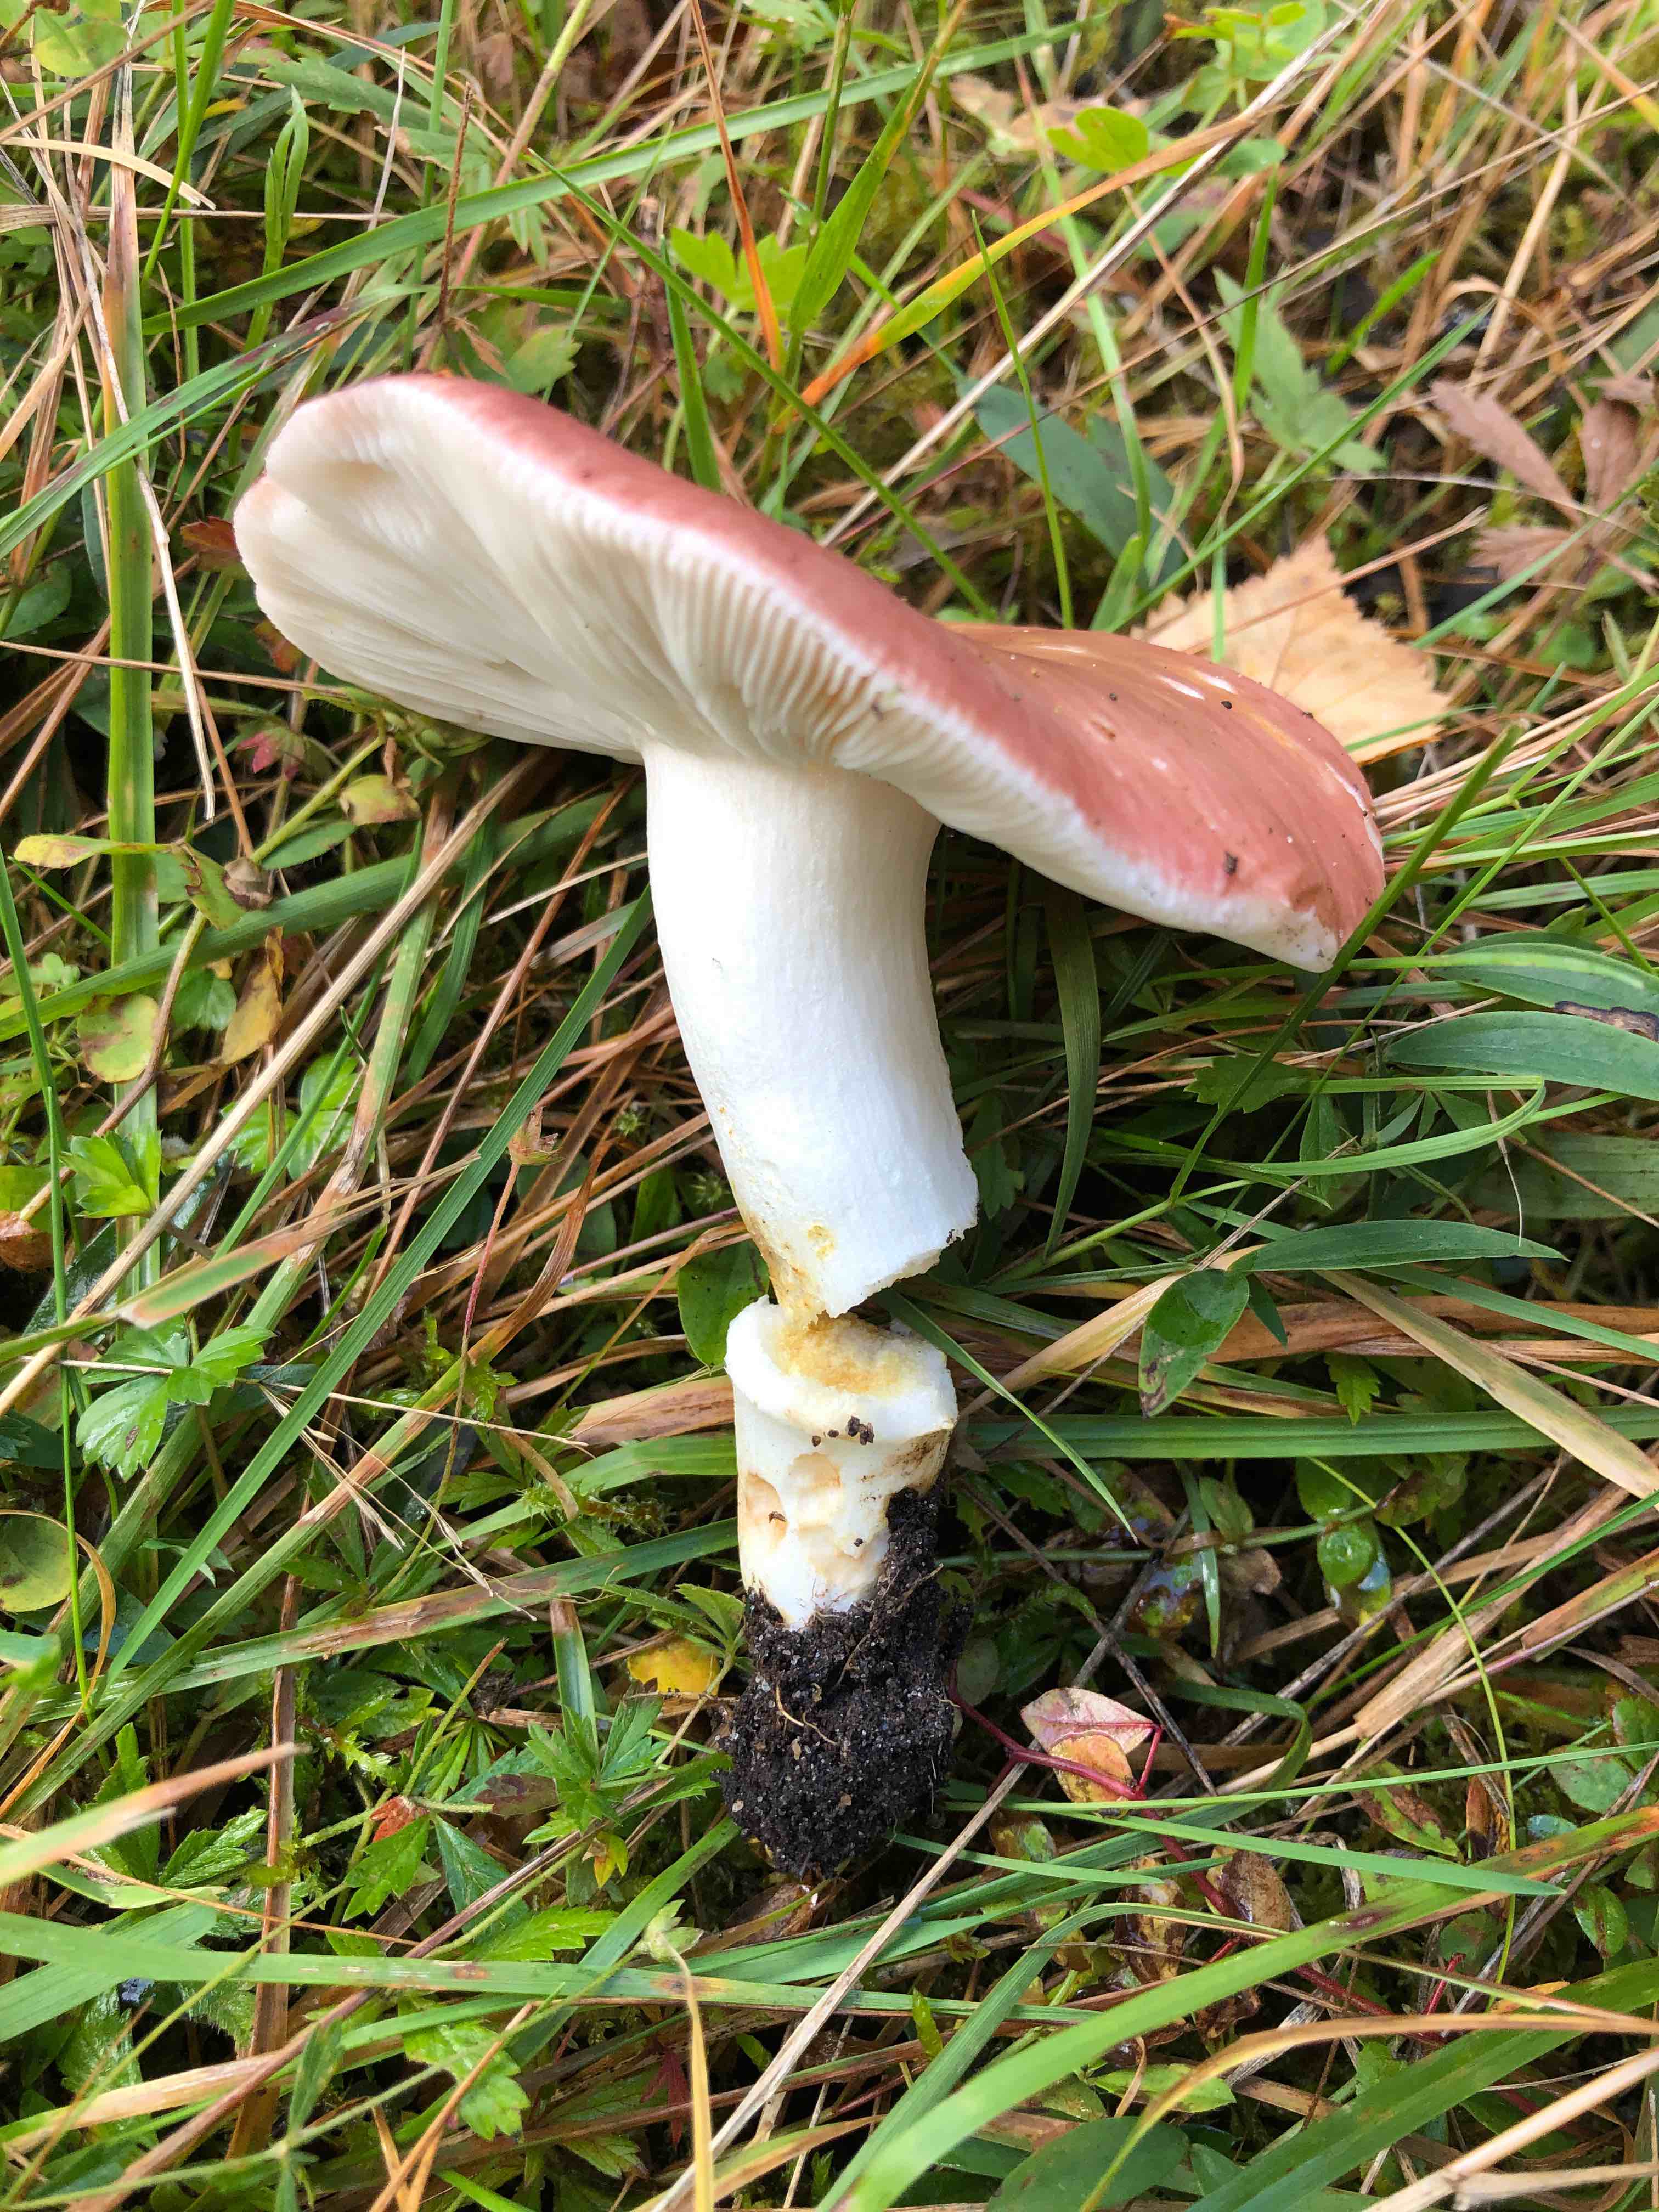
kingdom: Fungi
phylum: Basidiomycota
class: Agaricomycetes
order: Russulales
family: Russulaceae
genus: Russula
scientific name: Russula vesca
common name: spiselig skørhat
